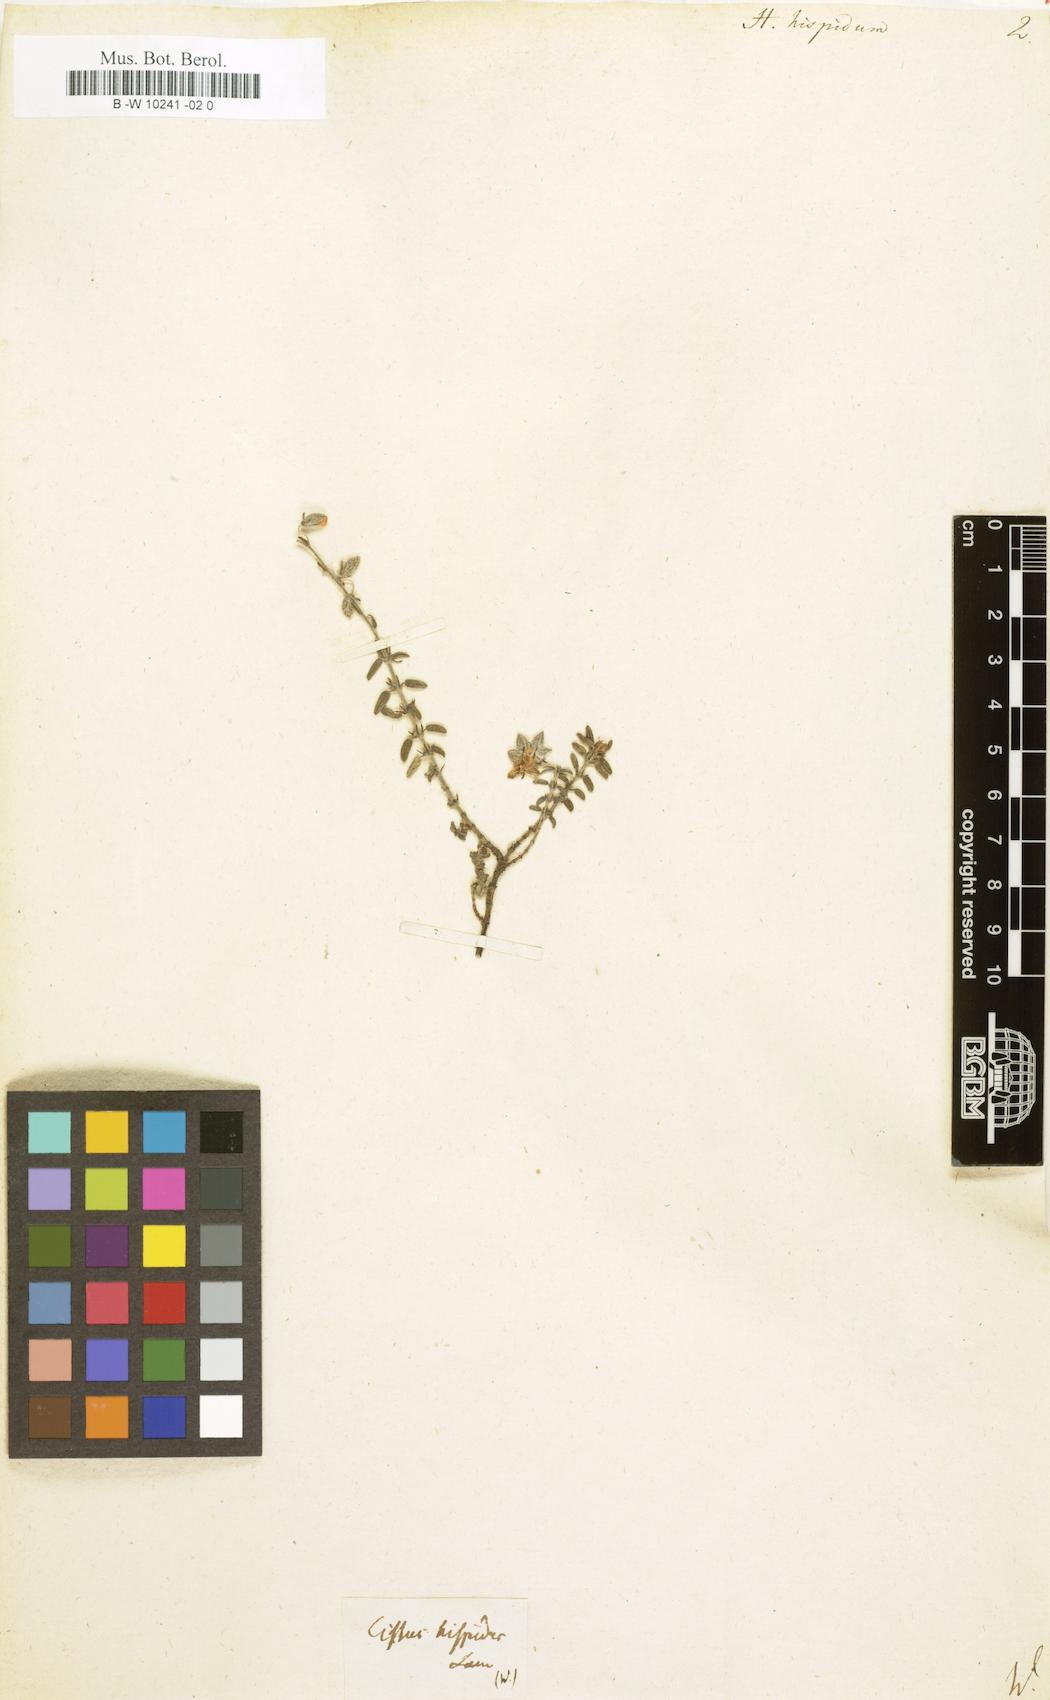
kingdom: Plantae
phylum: Tracheophyta
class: Magnoliopsida
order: Malvales
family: Cistaceae
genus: Helianthemum
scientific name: Helianthemum hispidum
